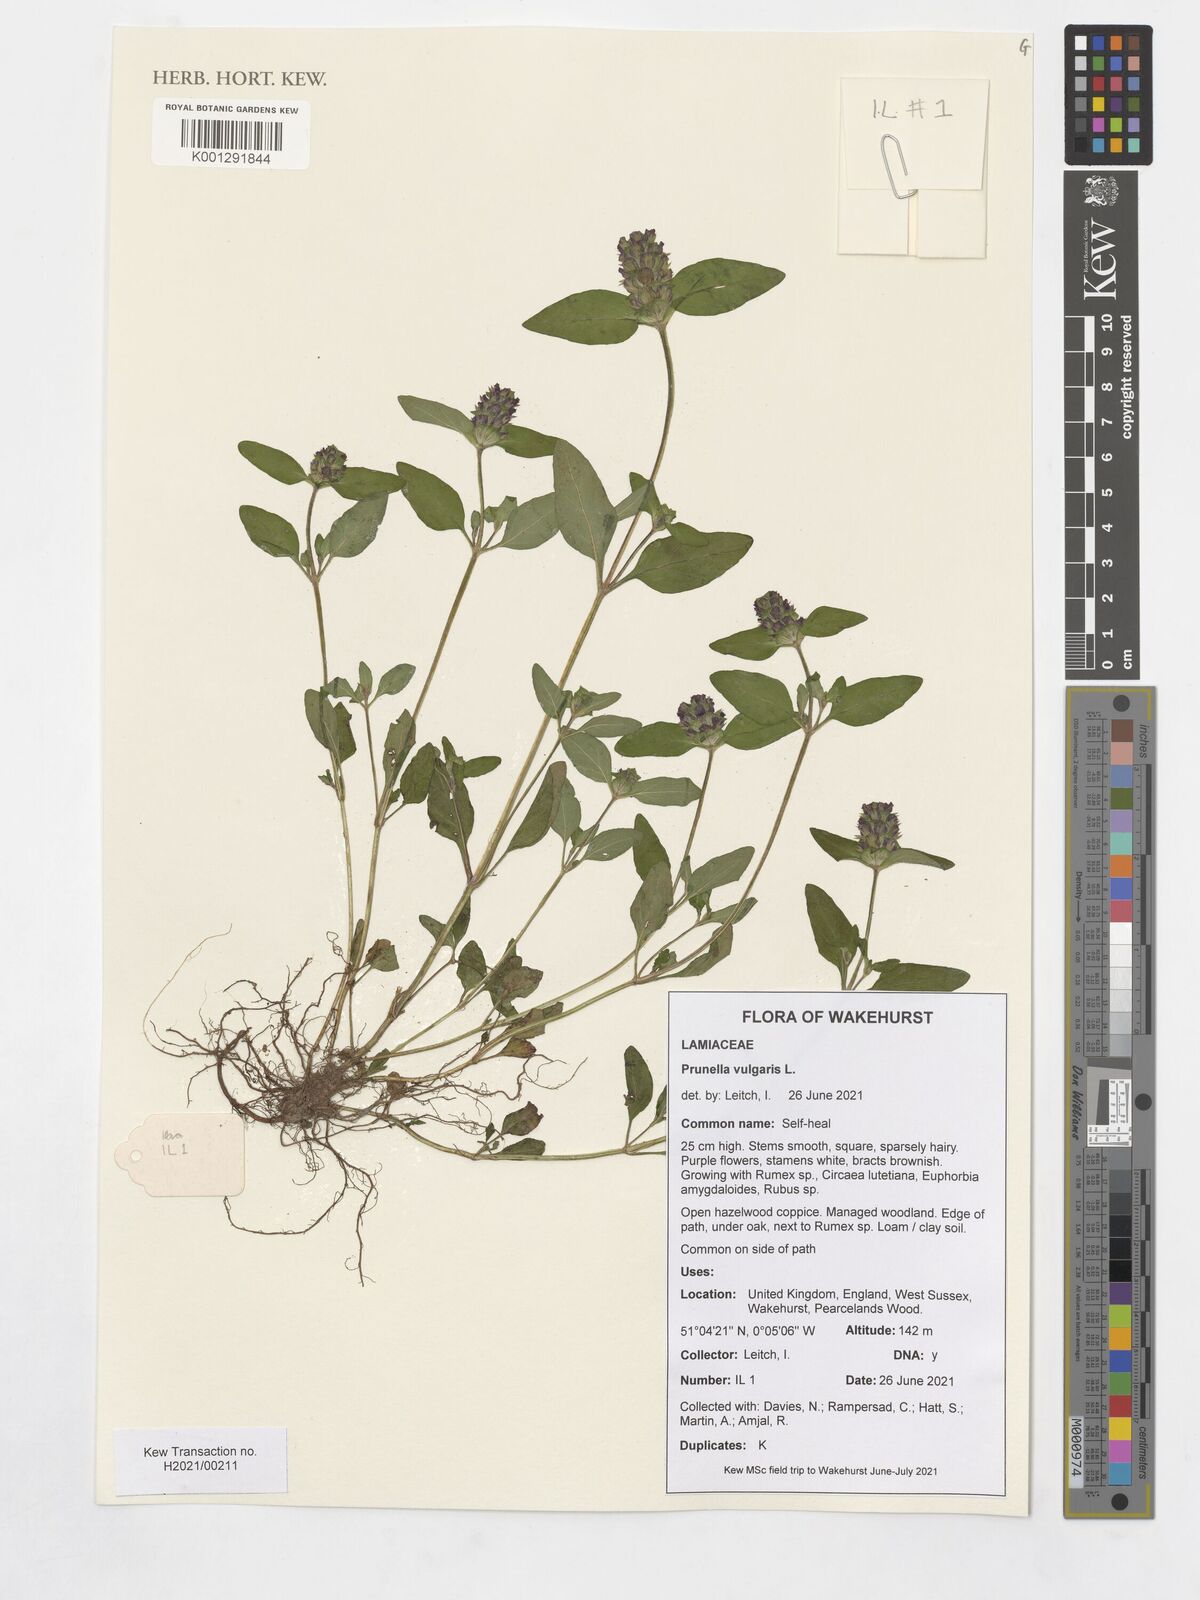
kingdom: Plantae
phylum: Tracheophyta
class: Magnoliopsida
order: Lamiales
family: Lamiaceae
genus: Prunella
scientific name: Prunella vulgaris
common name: Heal-all
